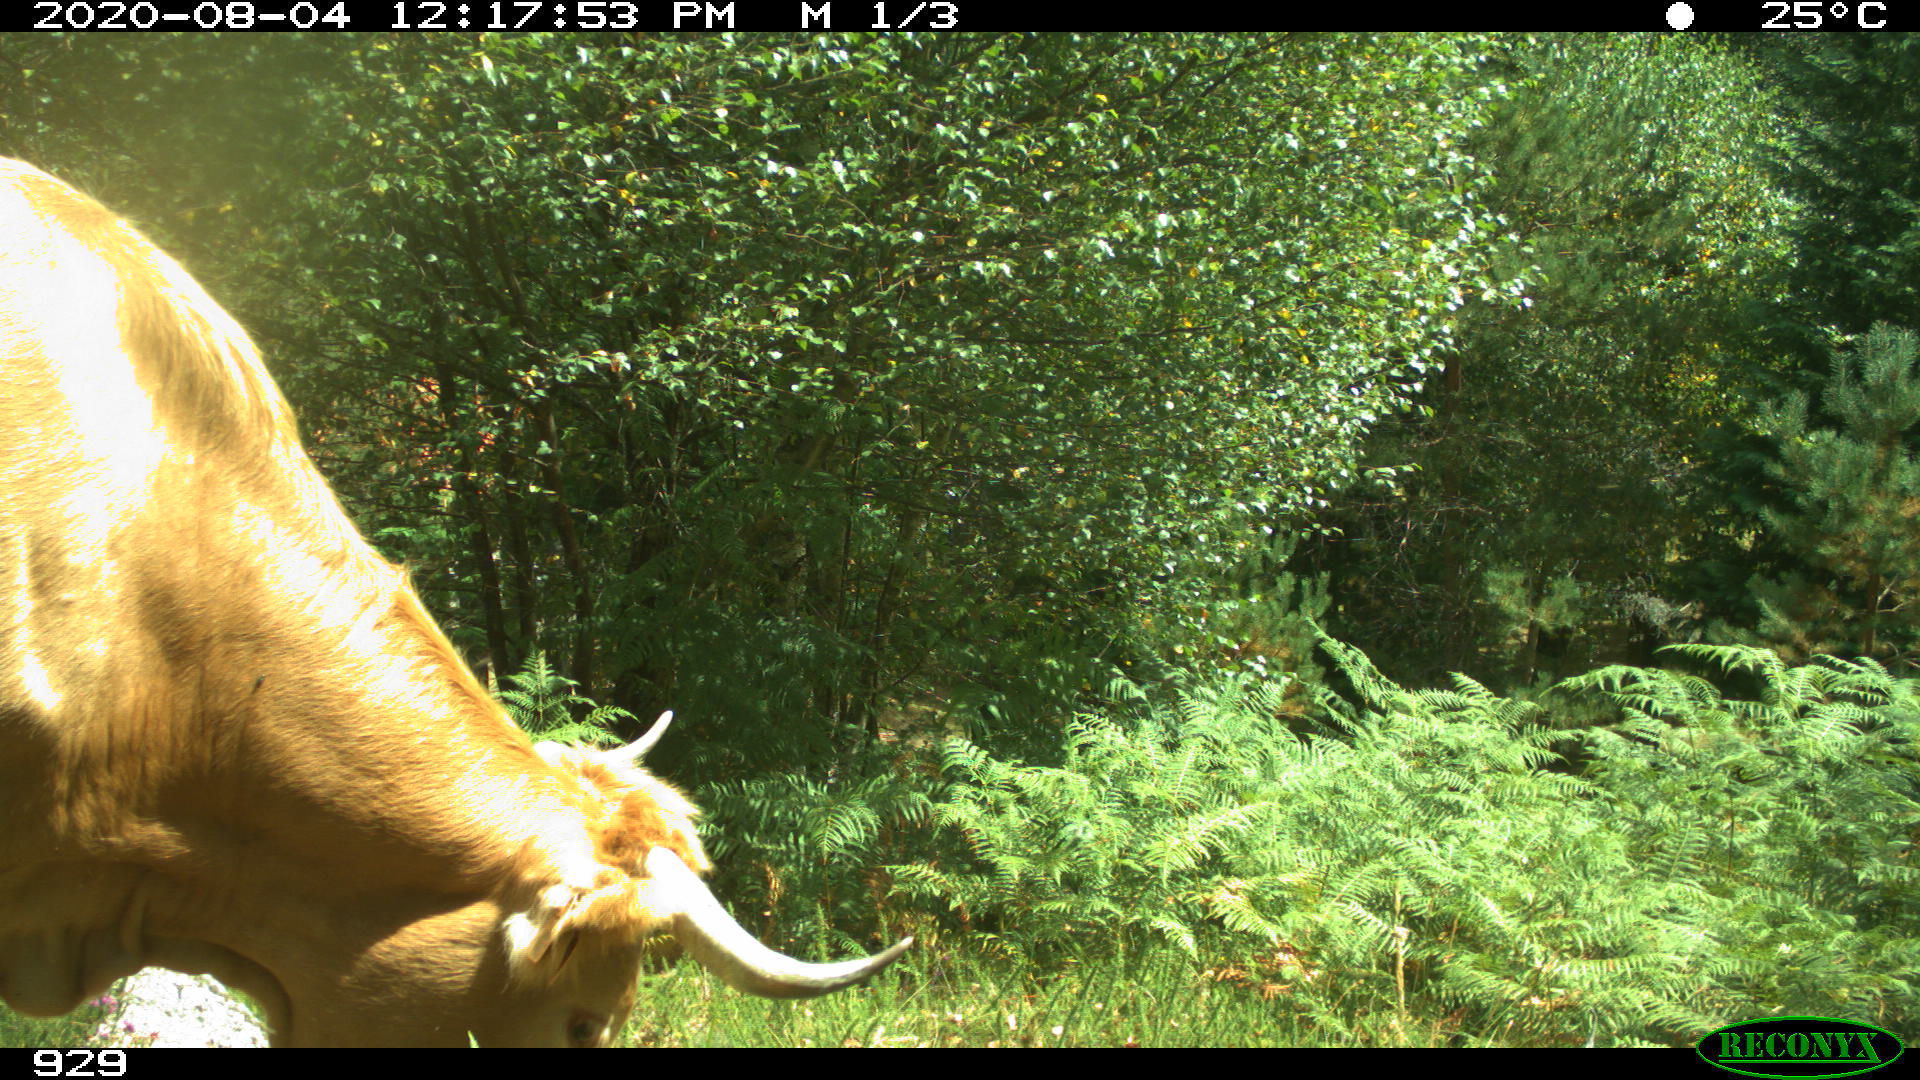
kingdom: Animalia
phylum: Chordata
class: Mammalia
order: Artiodactyla
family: Bovidae
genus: Bos
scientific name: Bos taurus
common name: Domesticated cattle
